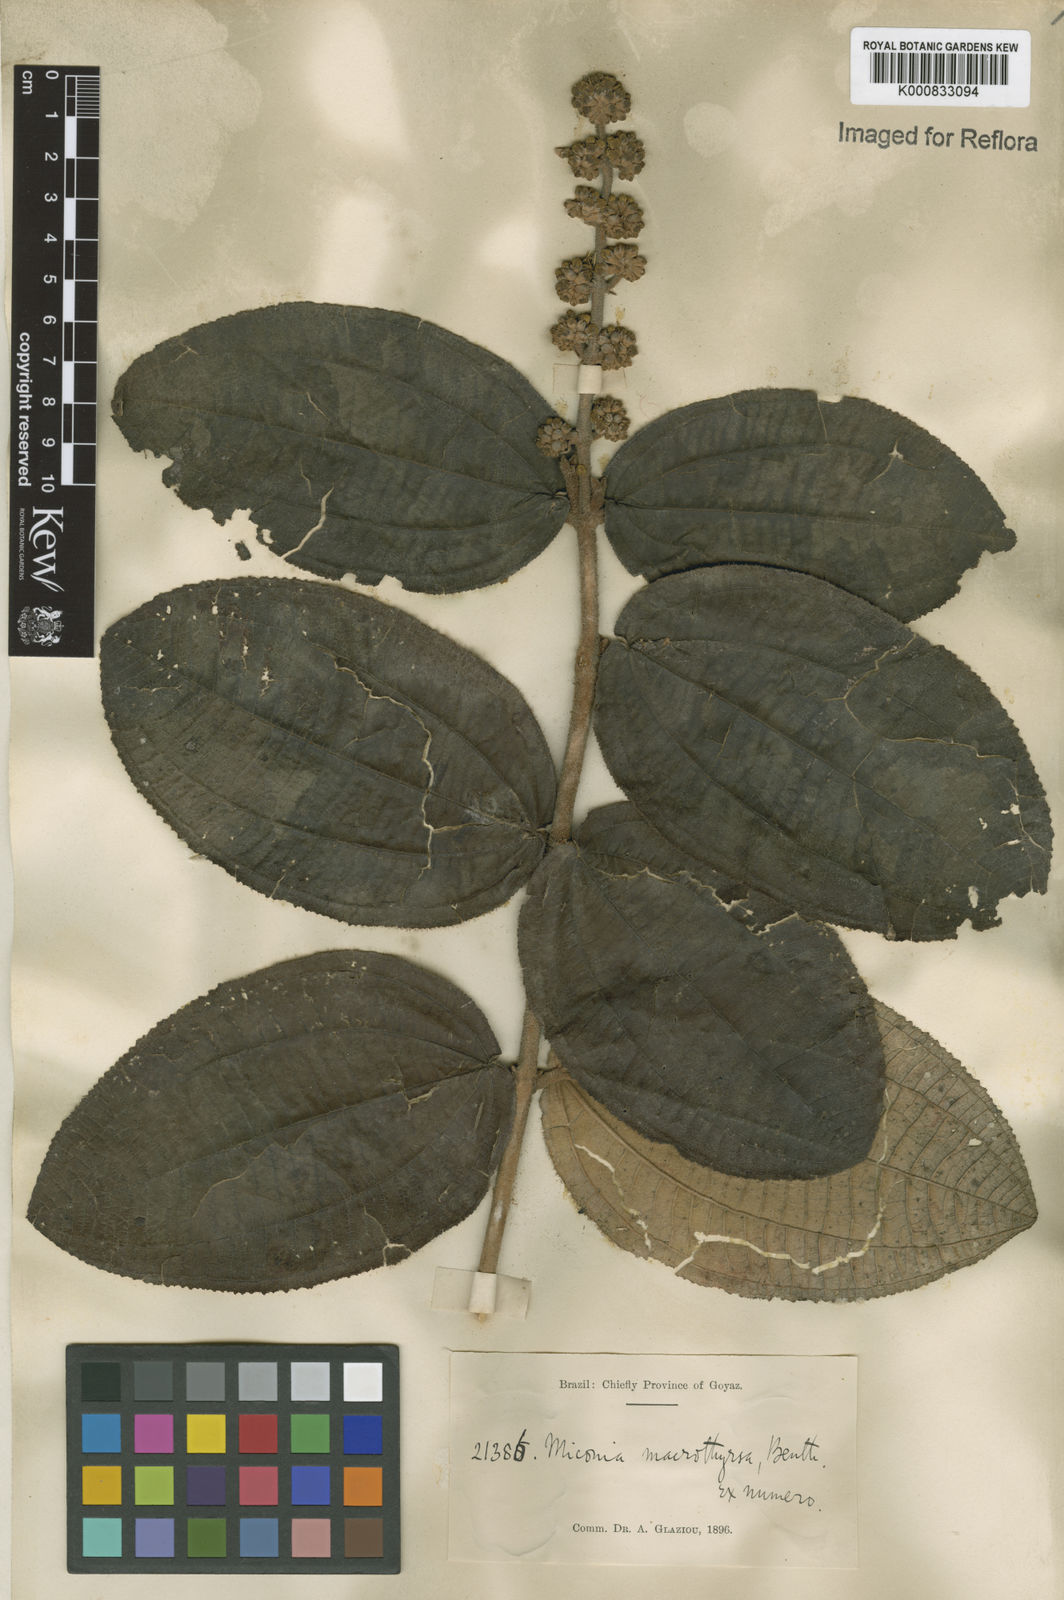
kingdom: Plantae
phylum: Tracheophyta
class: Magnoliopsida
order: Myrtales
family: Melastomataceae
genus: Miconia
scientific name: Miconia macrothyrsa
